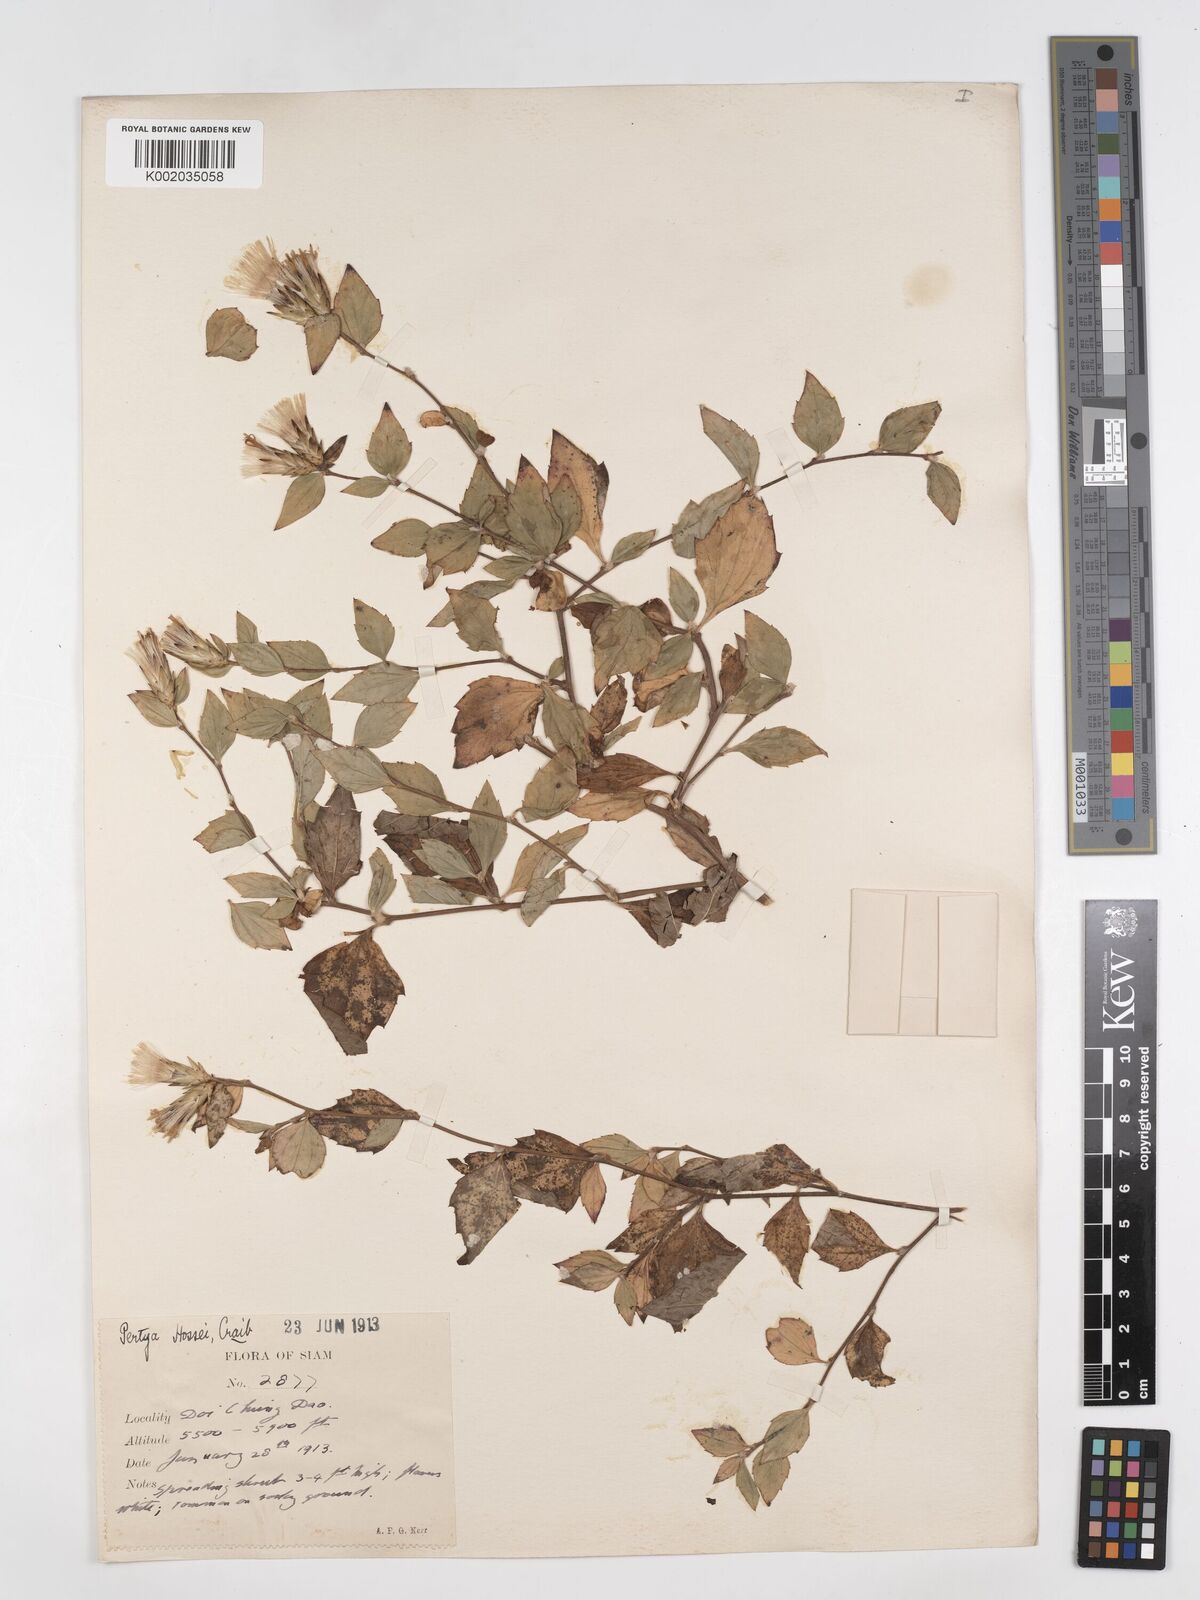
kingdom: Plantae
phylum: Tracheophyta
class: Magnoliopsida
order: Asterales
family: Asteraceae
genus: Pertya
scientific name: Pertya hossei
